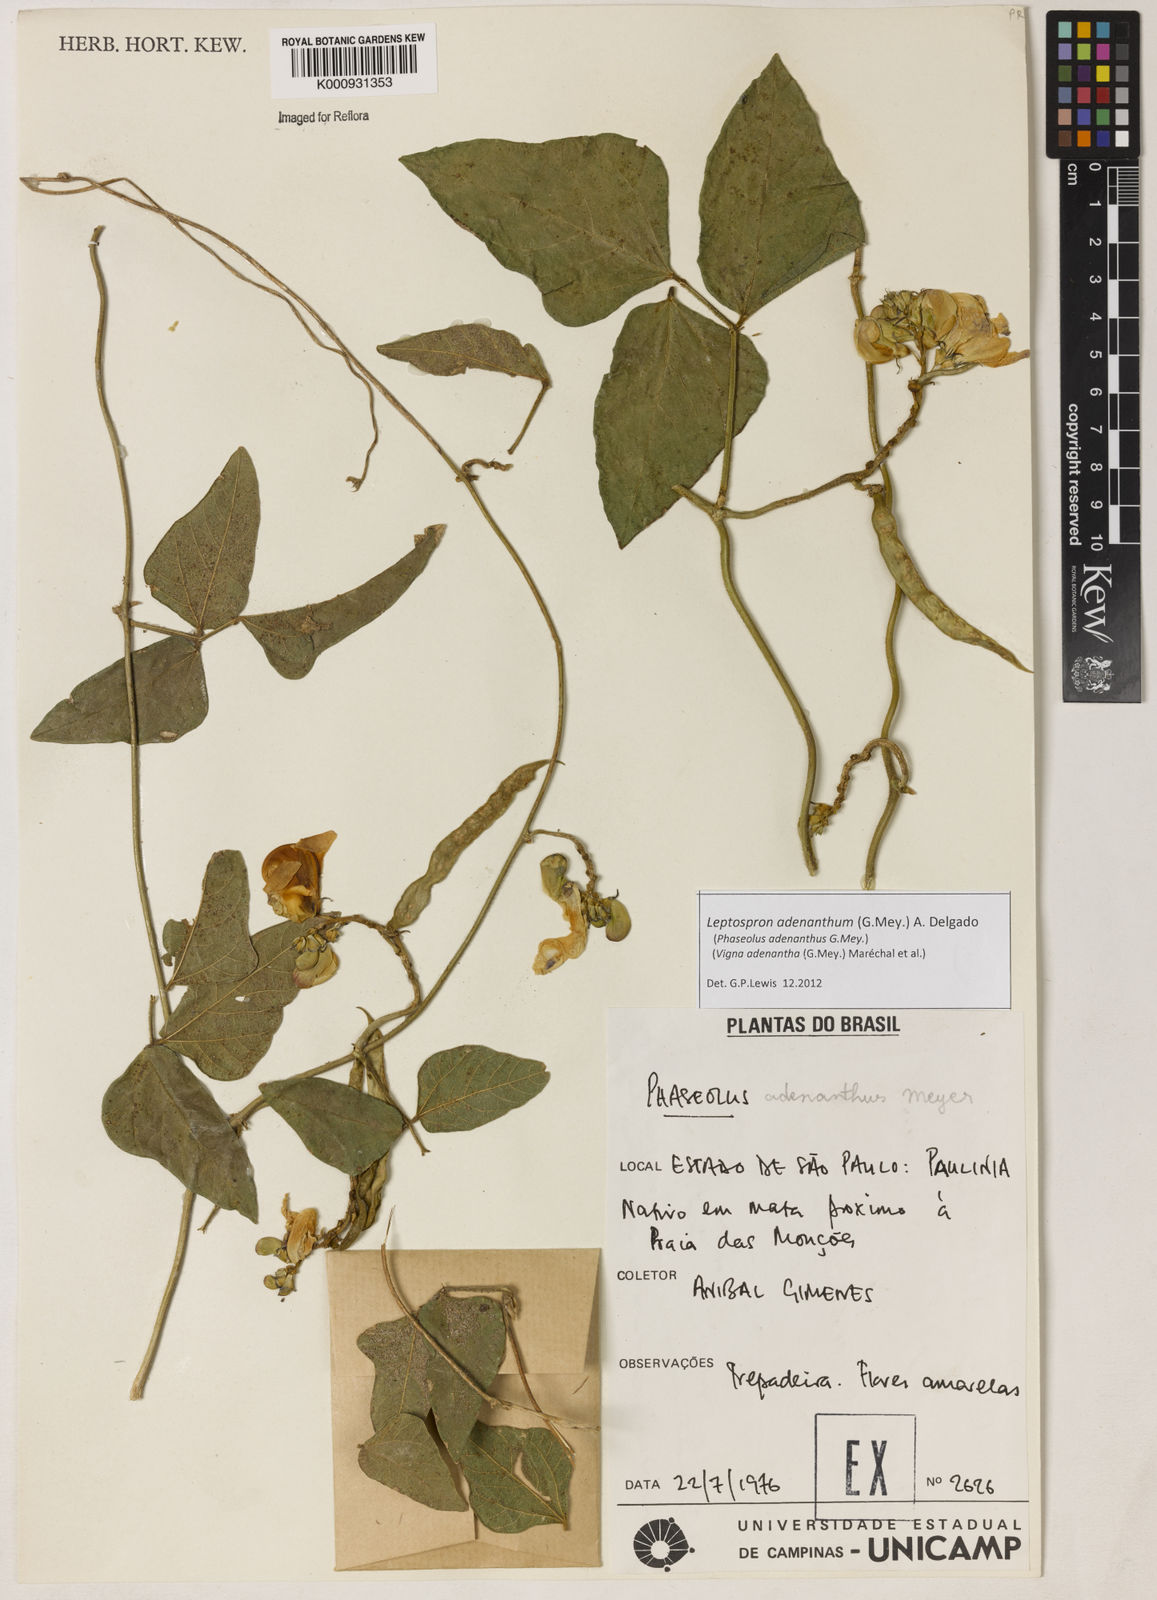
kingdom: Plantae
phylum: Tracheophyta
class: Magnoliopsida
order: Fabales
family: Fabaceae
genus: Leptospron
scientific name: Leptospron adenanthum
